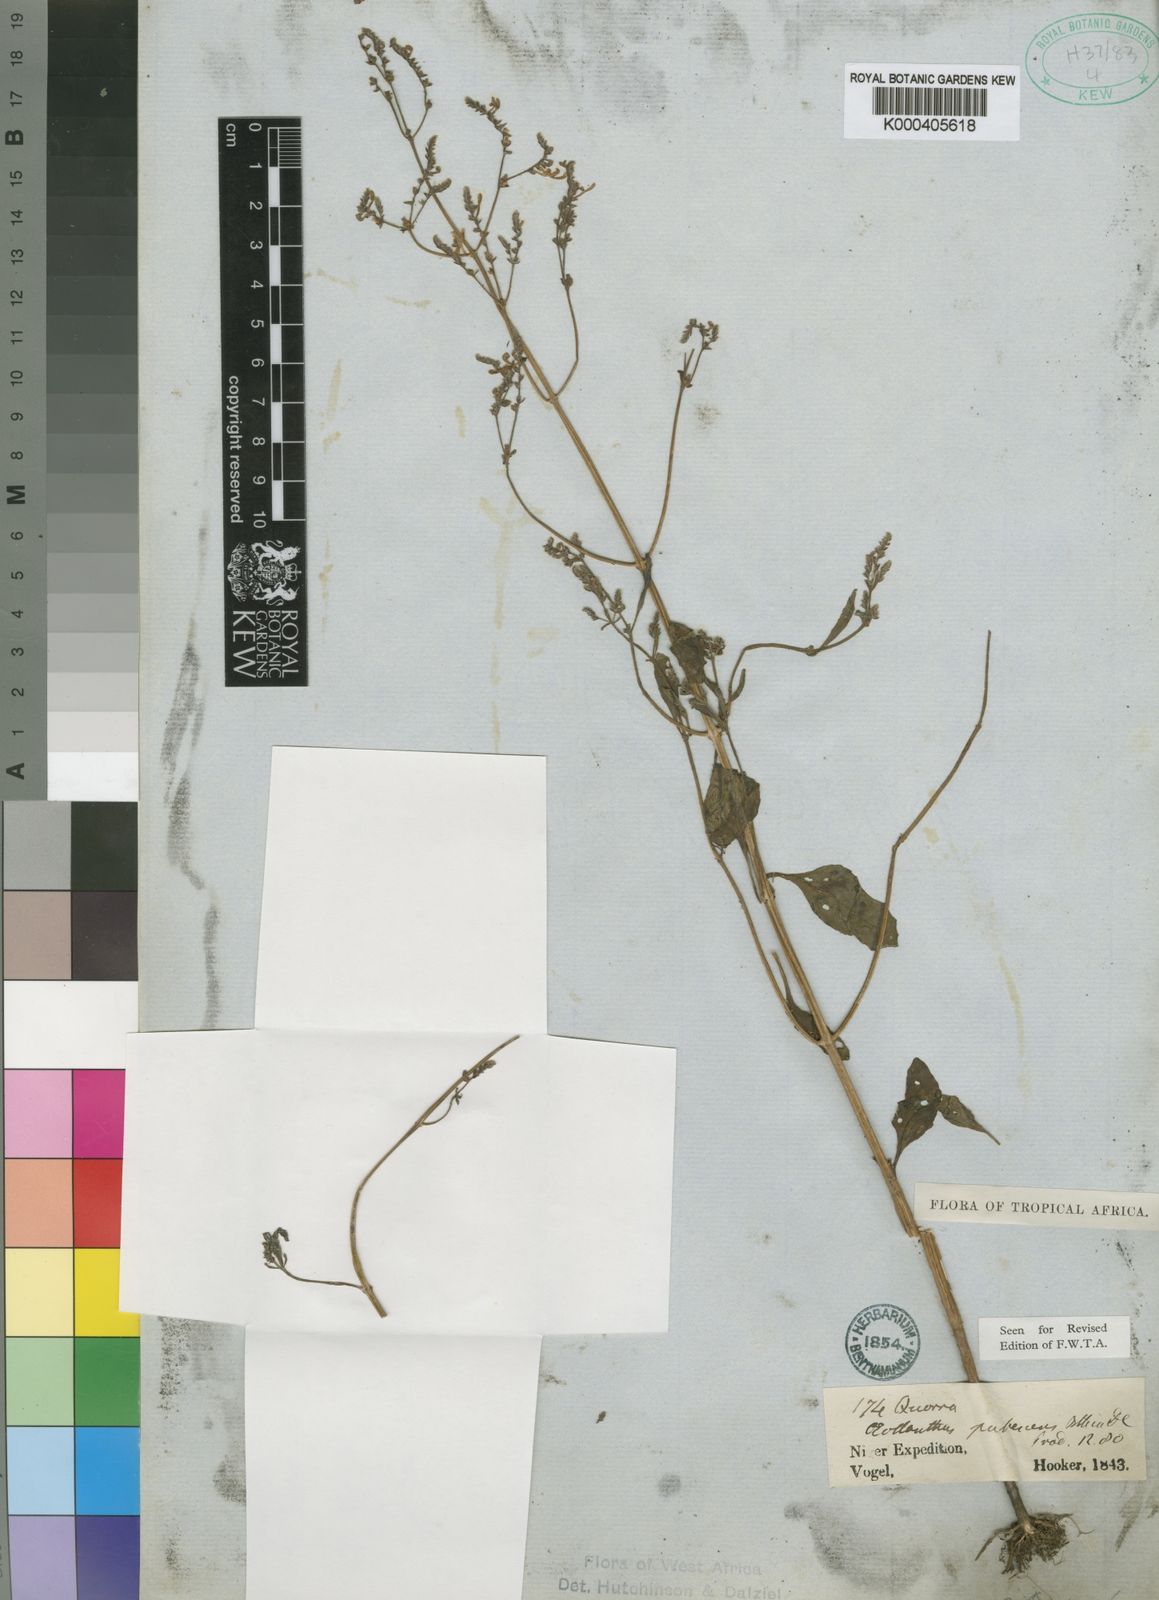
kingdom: Plantae
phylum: Tracheophyta
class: Magnoliopsida
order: Lamiales
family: Lamiaceae
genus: Aeollanthus
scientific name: Aeollanthus pubescens
